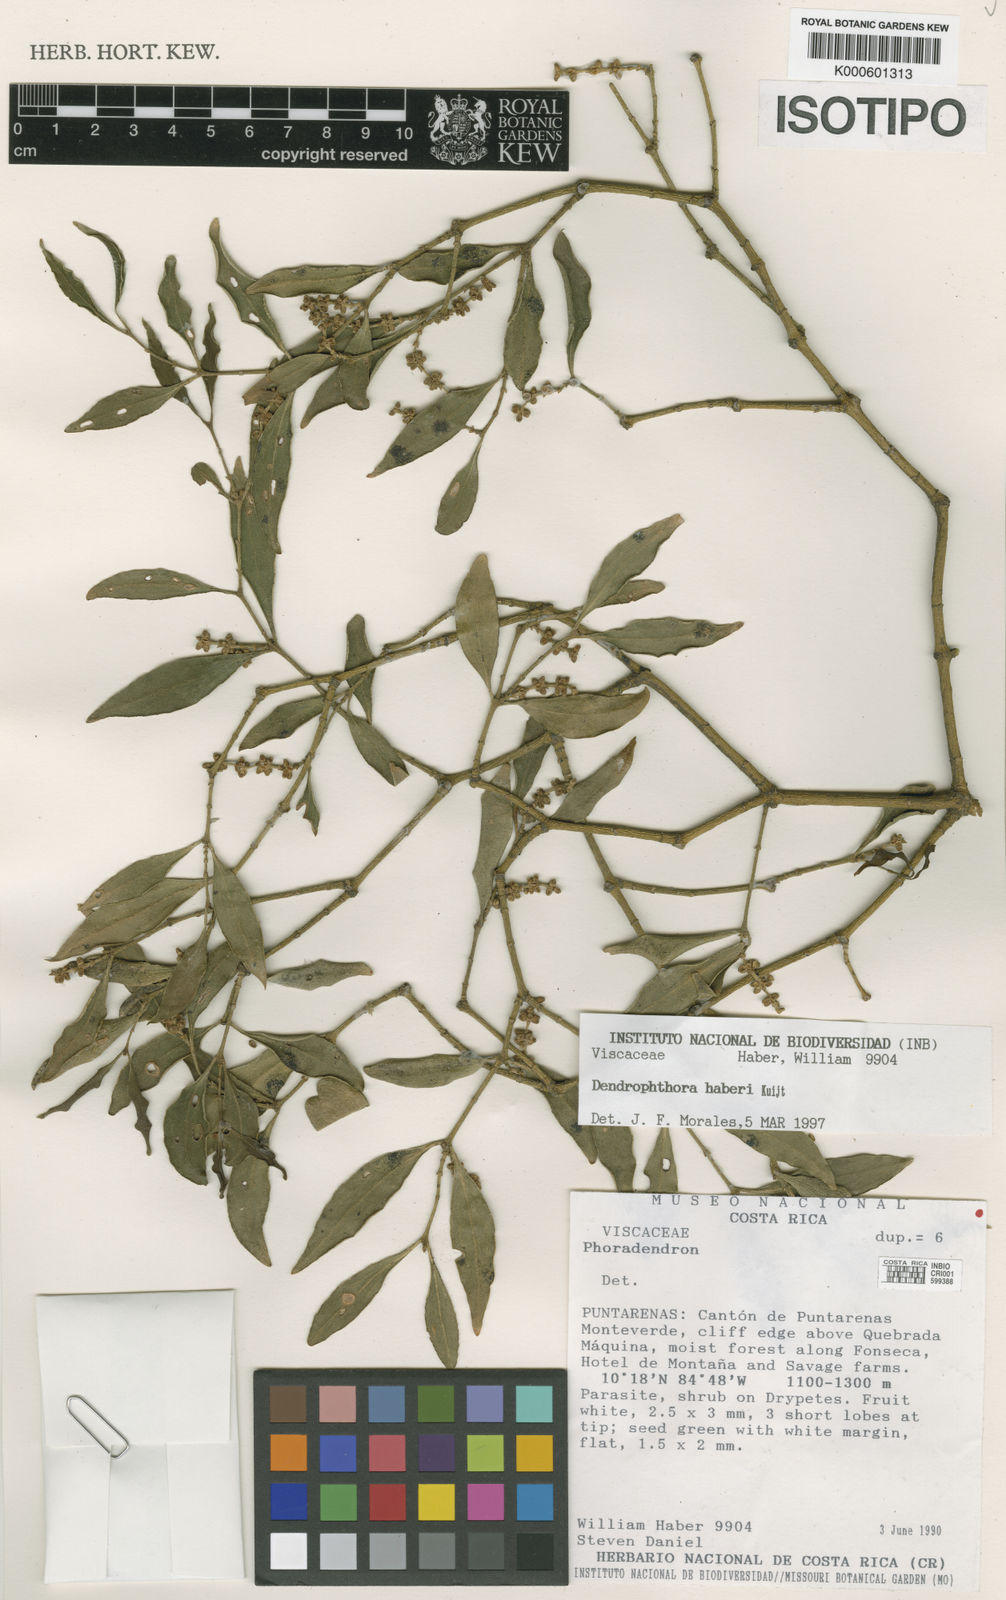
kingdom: Plantae
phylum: Tracheophyta
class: Magnoliopsida
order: Santalales
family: Viscaceae
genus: Phoradendron
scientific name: Phoradendron haberi
